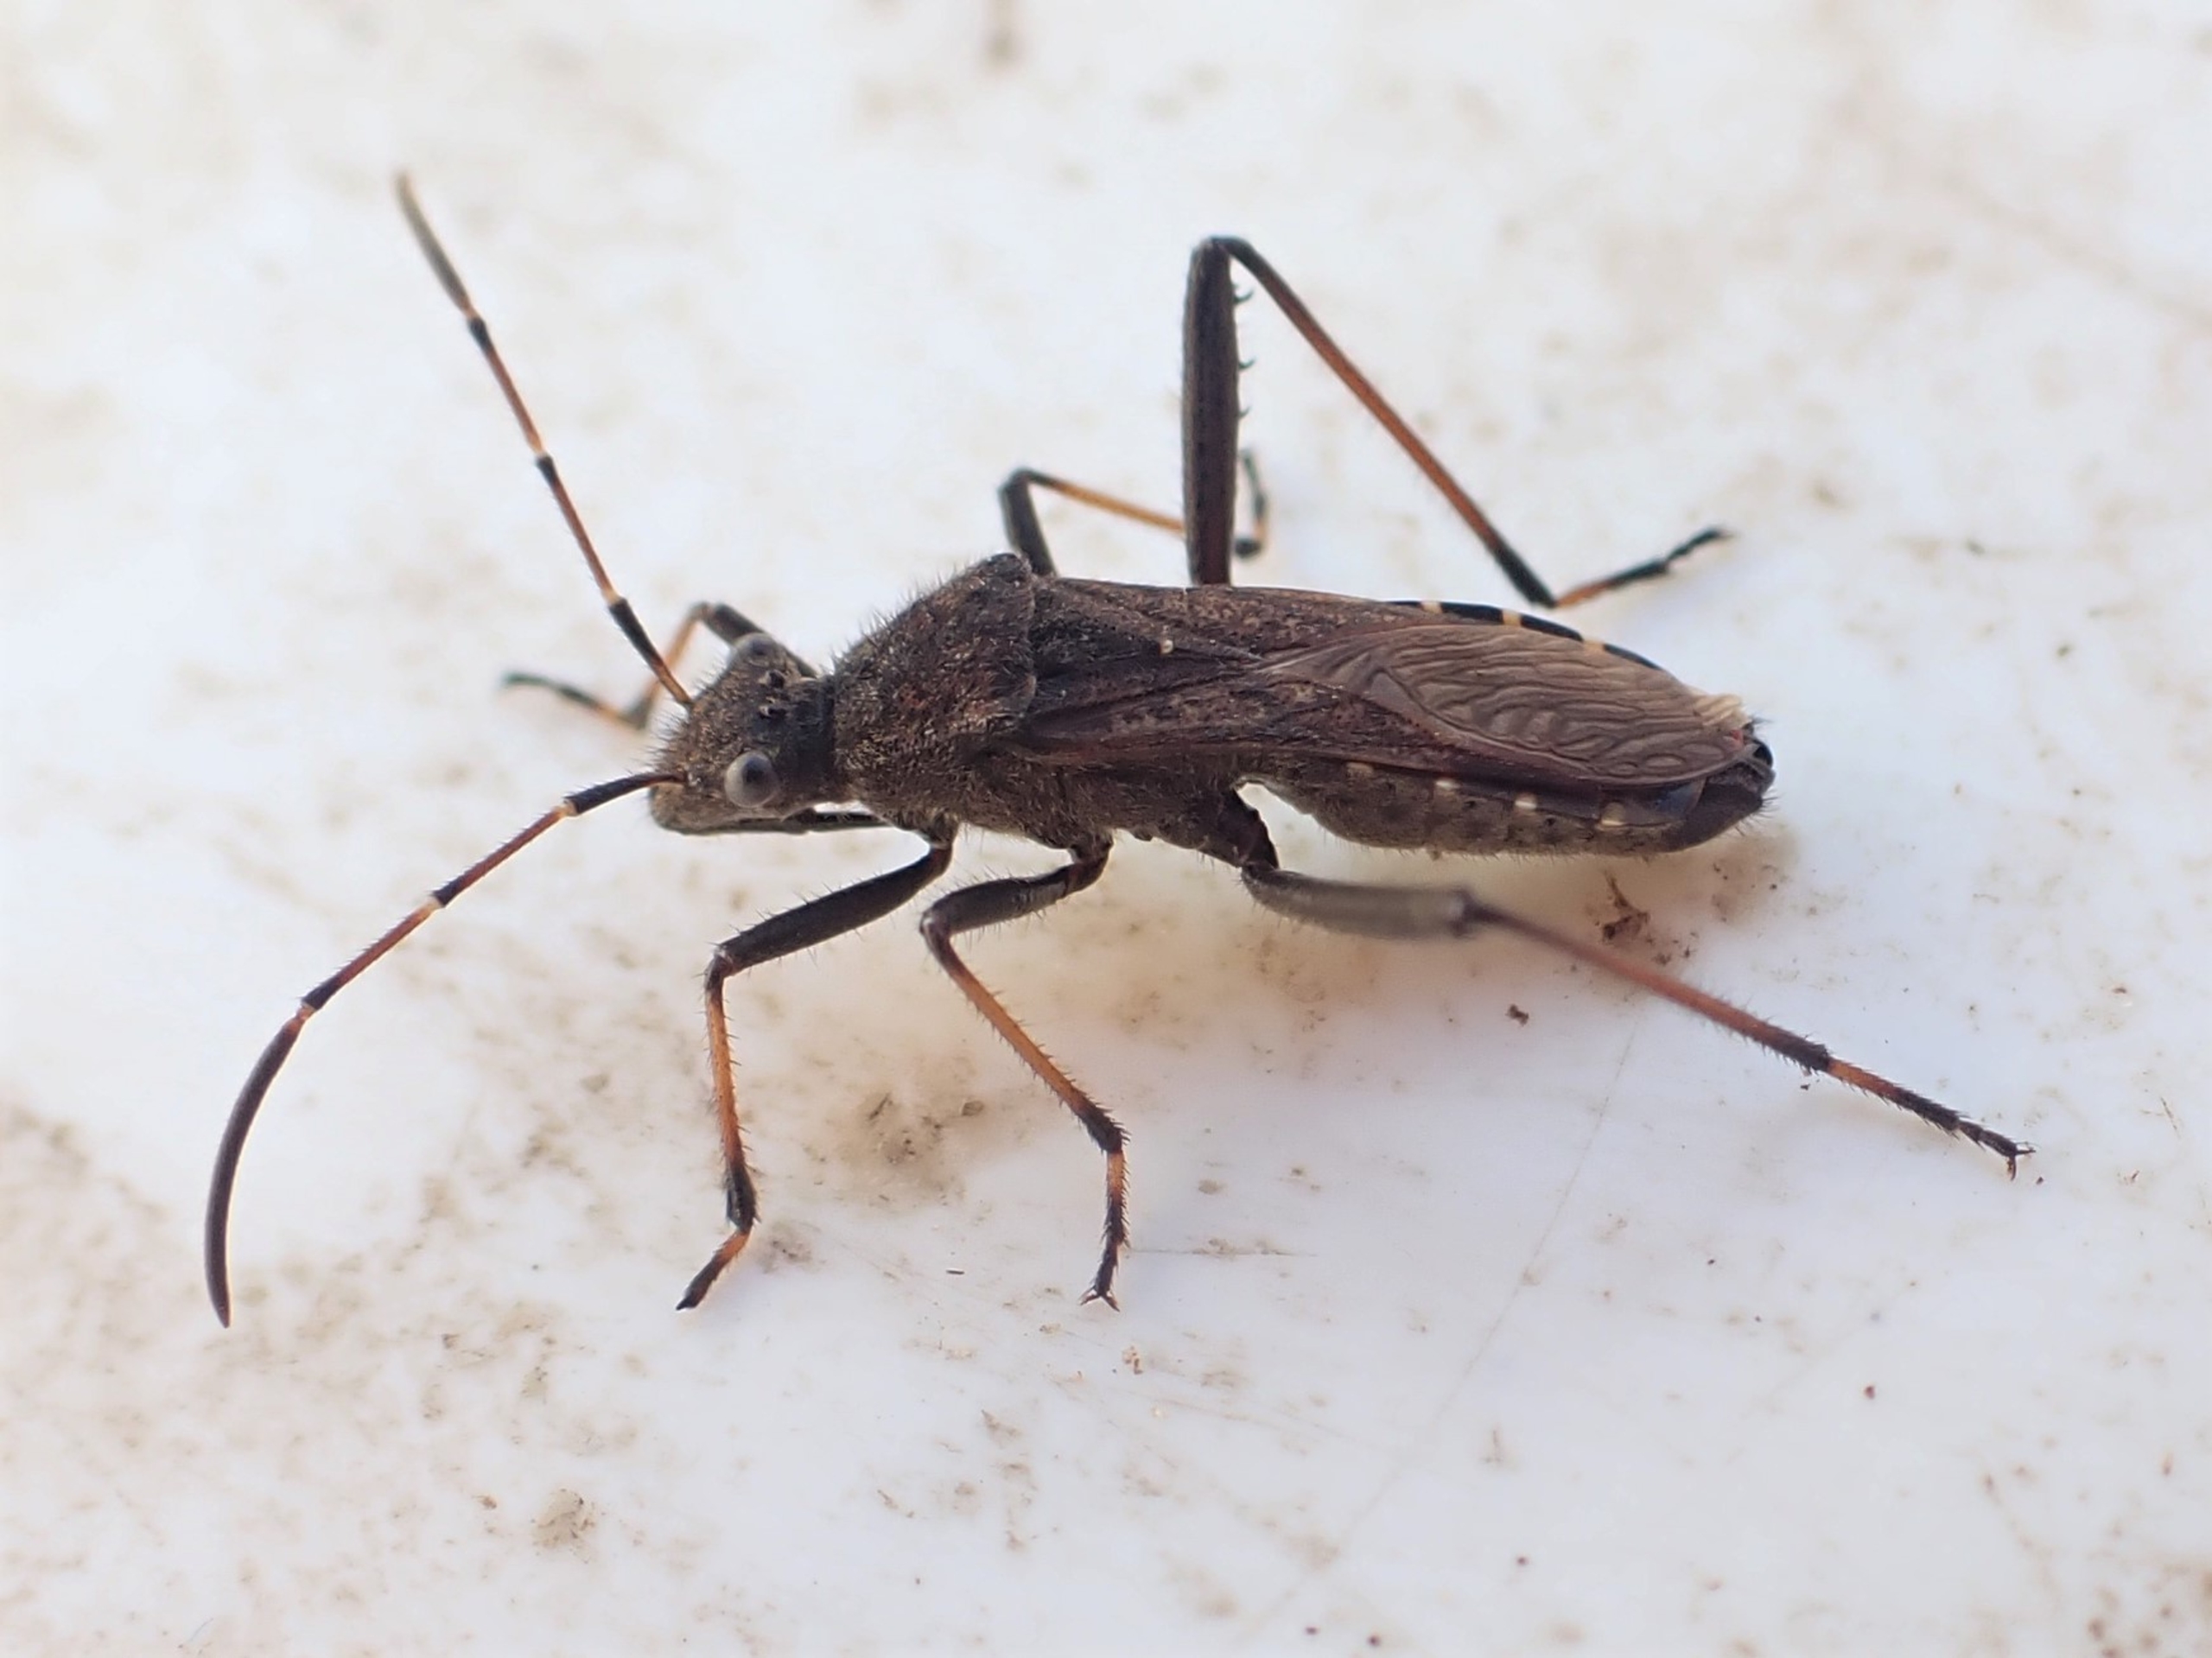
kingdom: Animalia
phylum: Arthropoda
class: Insecta
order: Hemiptera
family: Alydidae
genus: Alydus
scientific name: Alydus calcaratus
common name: Hvepsetæge
